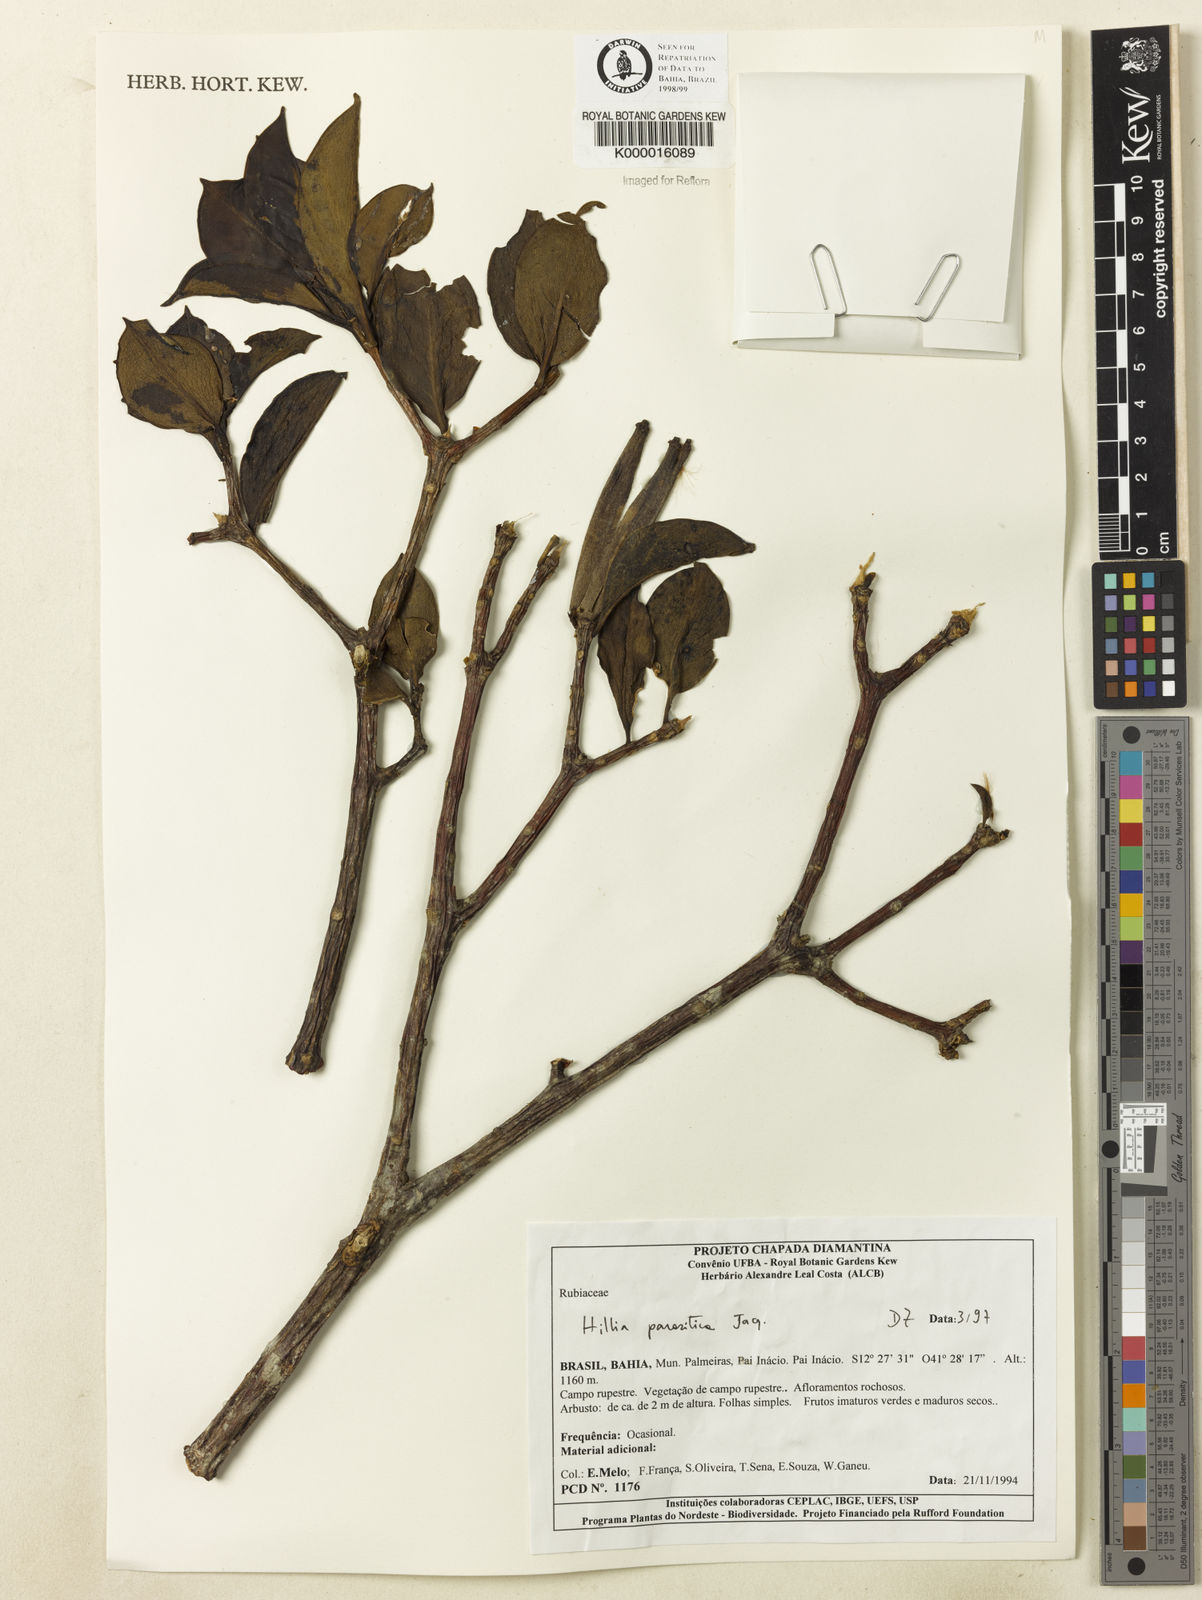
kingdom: Plantae
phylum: Tracheophyta
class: Magnoliopsida
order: Gentianales
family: Rubiaceae
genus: Hillia
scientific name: Hillia parasitica
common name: Morning star
